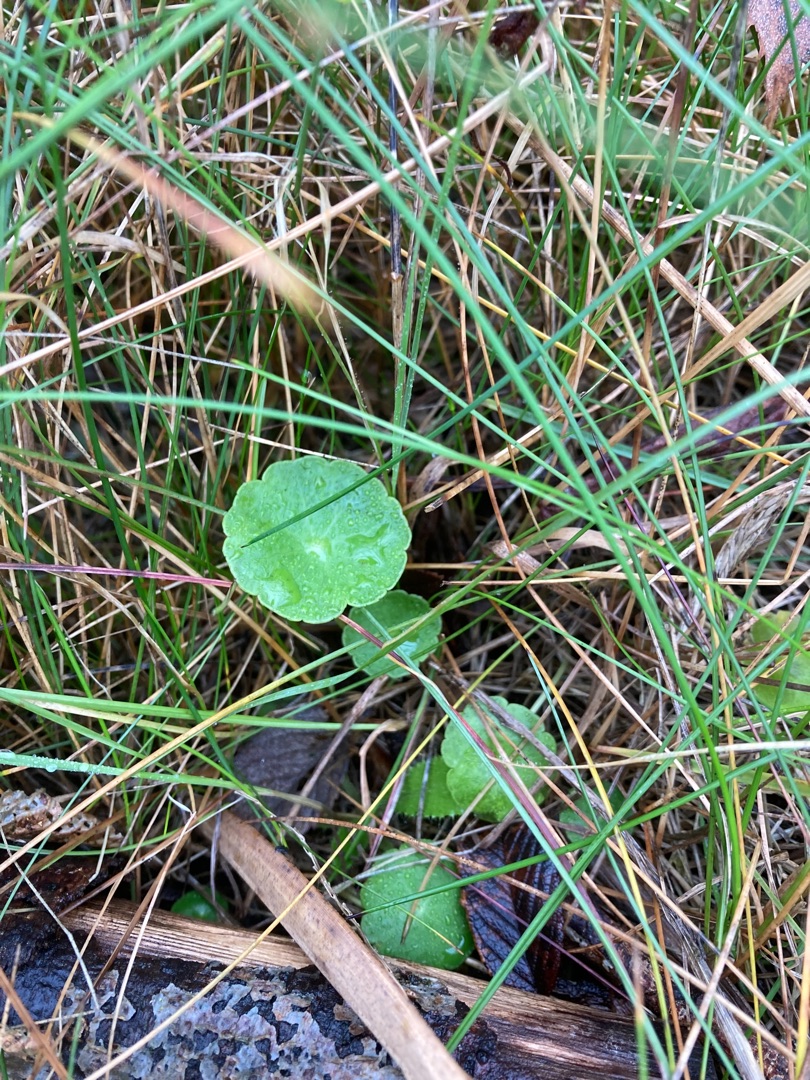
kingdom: Plantae
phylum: Tracheophyta
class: Magnoliopsida
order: Apiales
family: Araliaceae
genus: Hydrocotyle
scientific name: Hydrocotyle vulgaris
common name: Vandnavle
